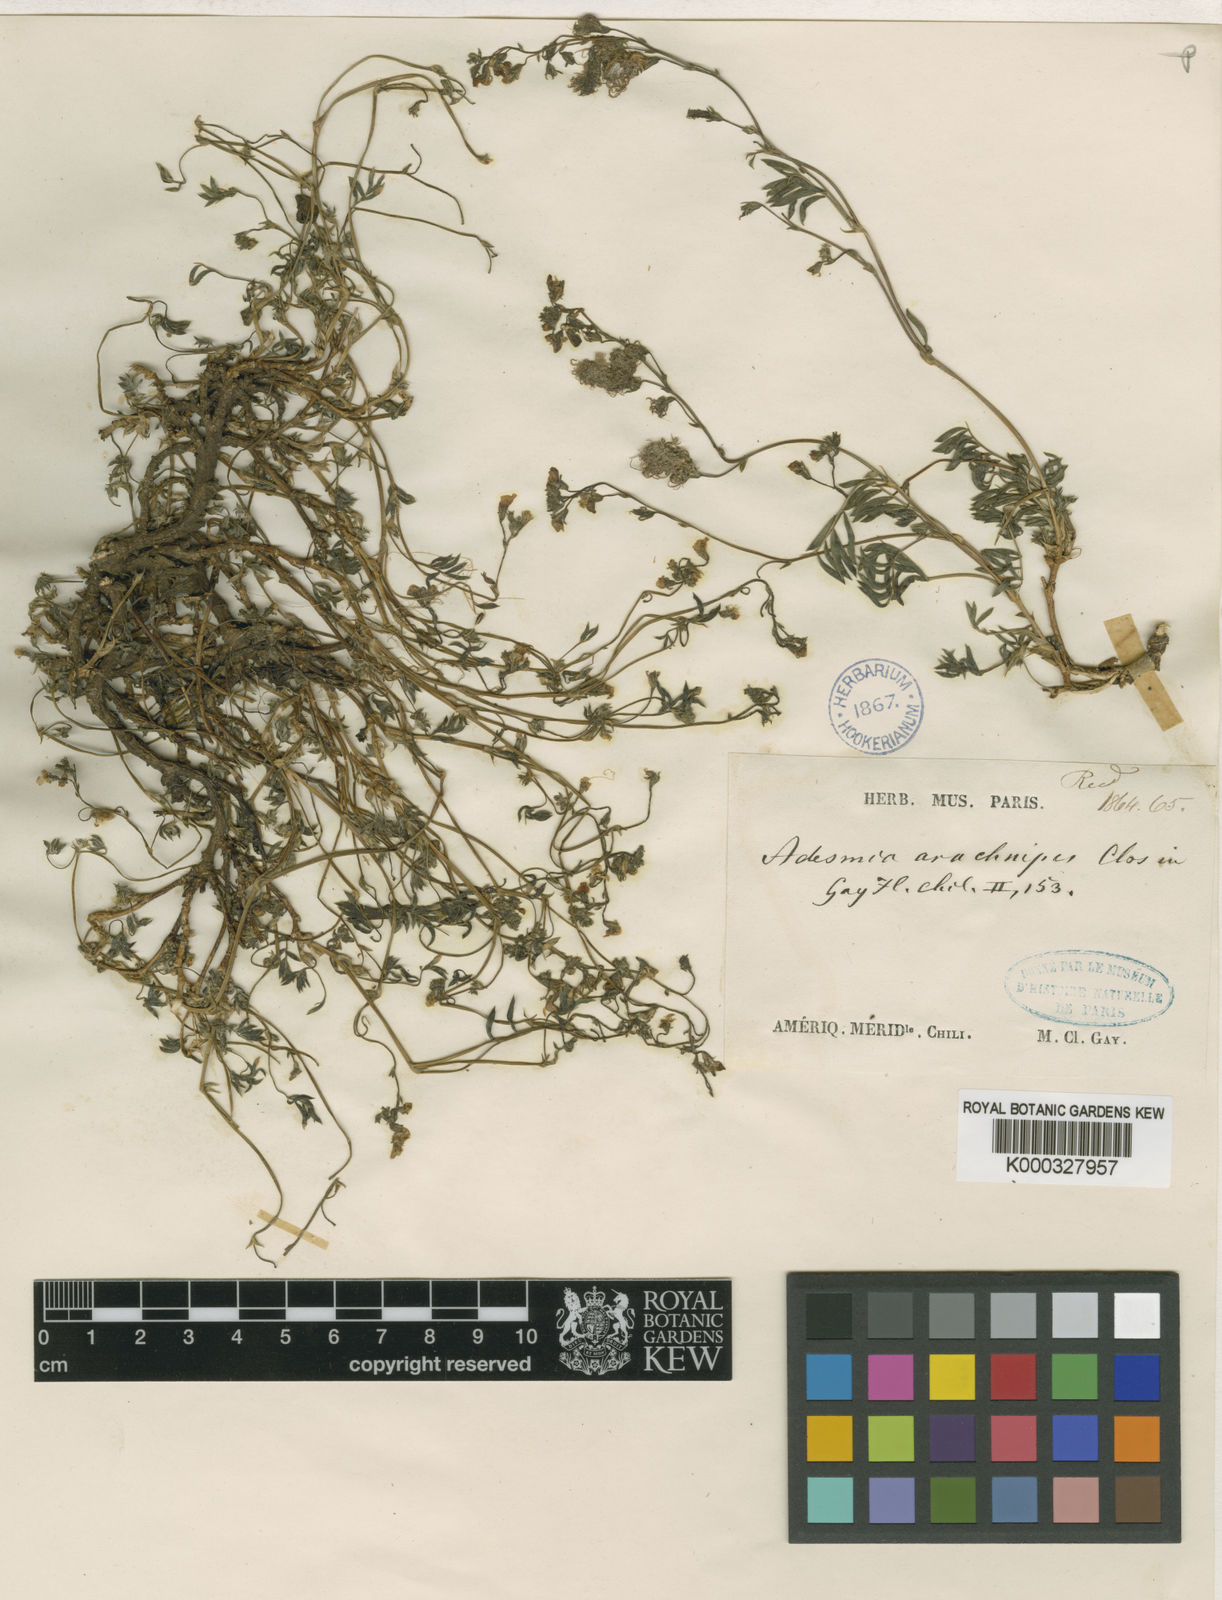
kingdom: Plantae
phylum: Tracheophyta
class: Magnoliopsida
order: Fabales
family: Fabaceae
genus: Adesmia
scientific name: Adesmia arachnipes
